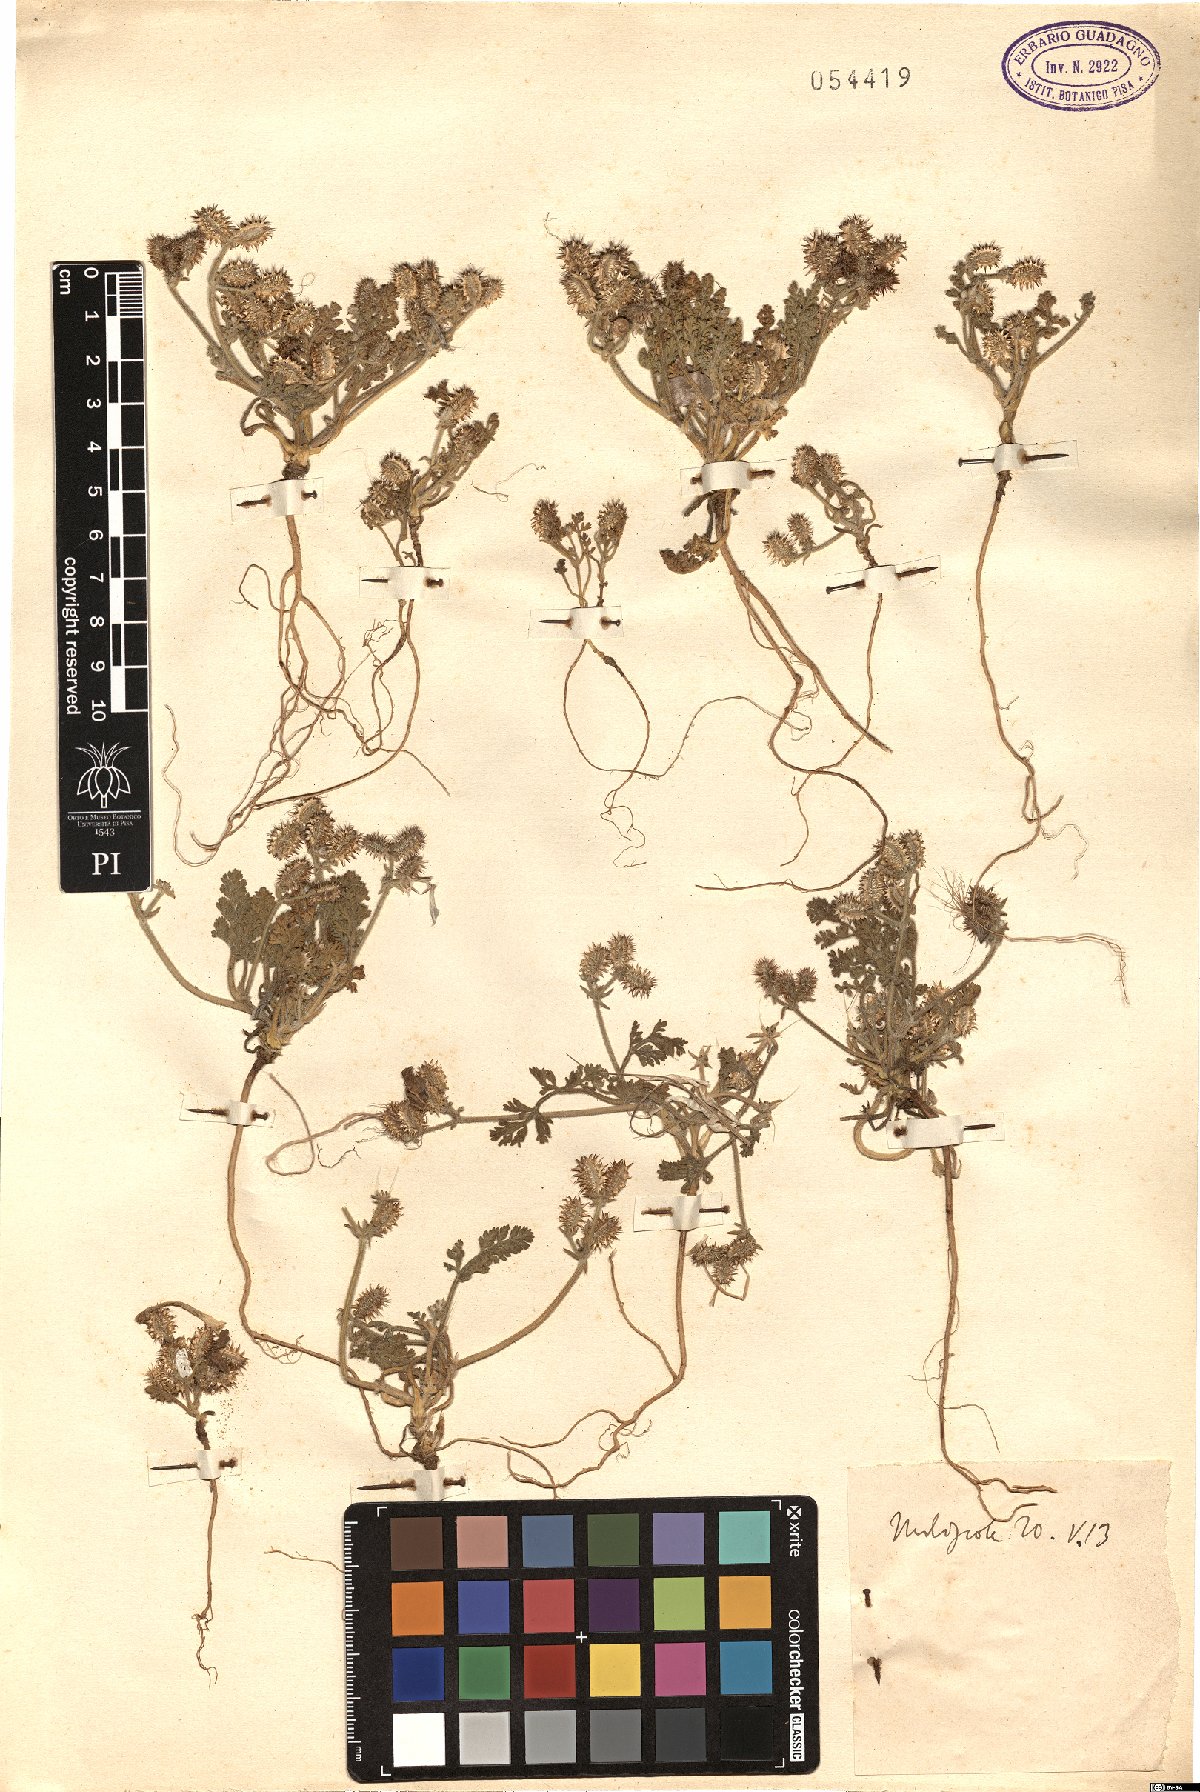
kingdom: Plantae
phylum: Tracheophyta
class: Magnoliopsida
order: Apiales
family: Apiaceae
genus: Daucus
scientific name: Daucus
